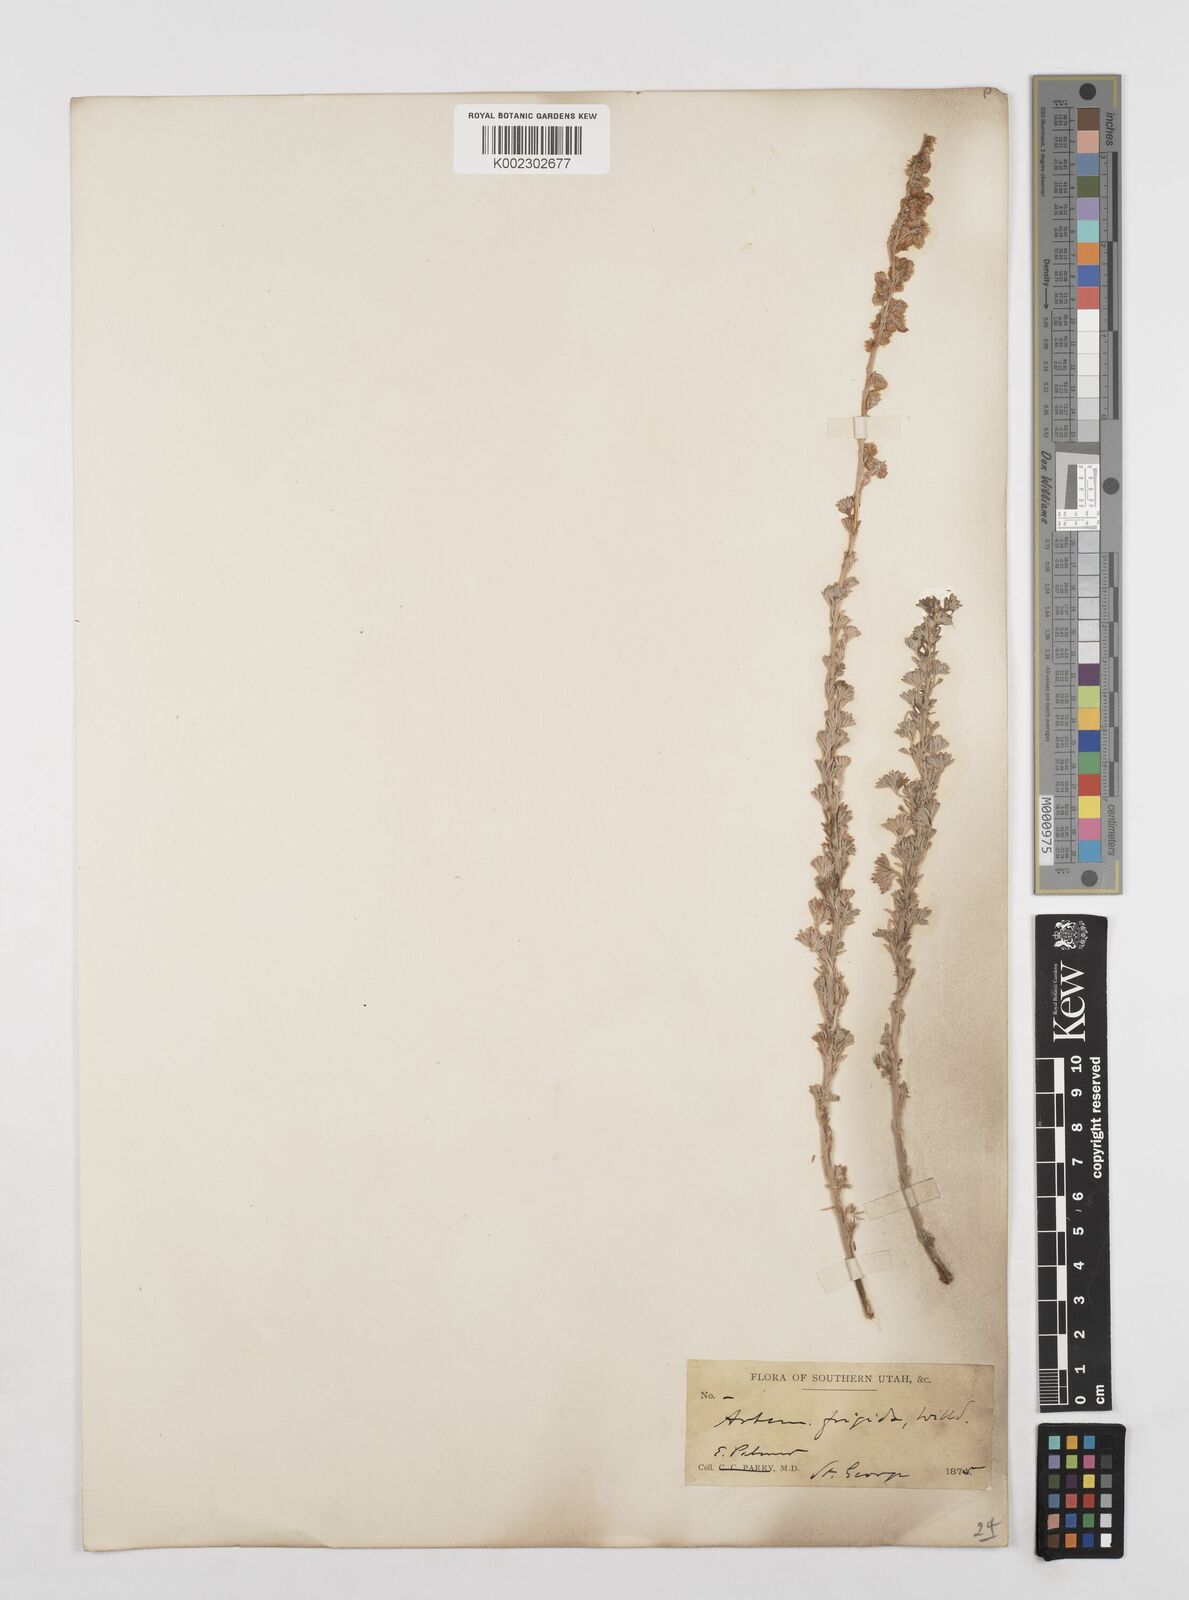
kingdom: Plantae
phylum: Tracheophyta
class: Magnoliopsida
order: Asterales
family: Asteraceae
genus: Artemisia
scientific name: Artemisia frigida
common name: Prairie sagewort
